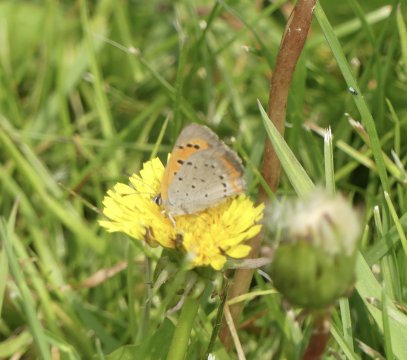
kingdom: Animalia
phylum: Arthropoda
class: Insecta
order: Lepidoptera
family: Lycaenidae
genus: Lycaena
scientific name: Lycaena phlaeas
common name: American Copper
